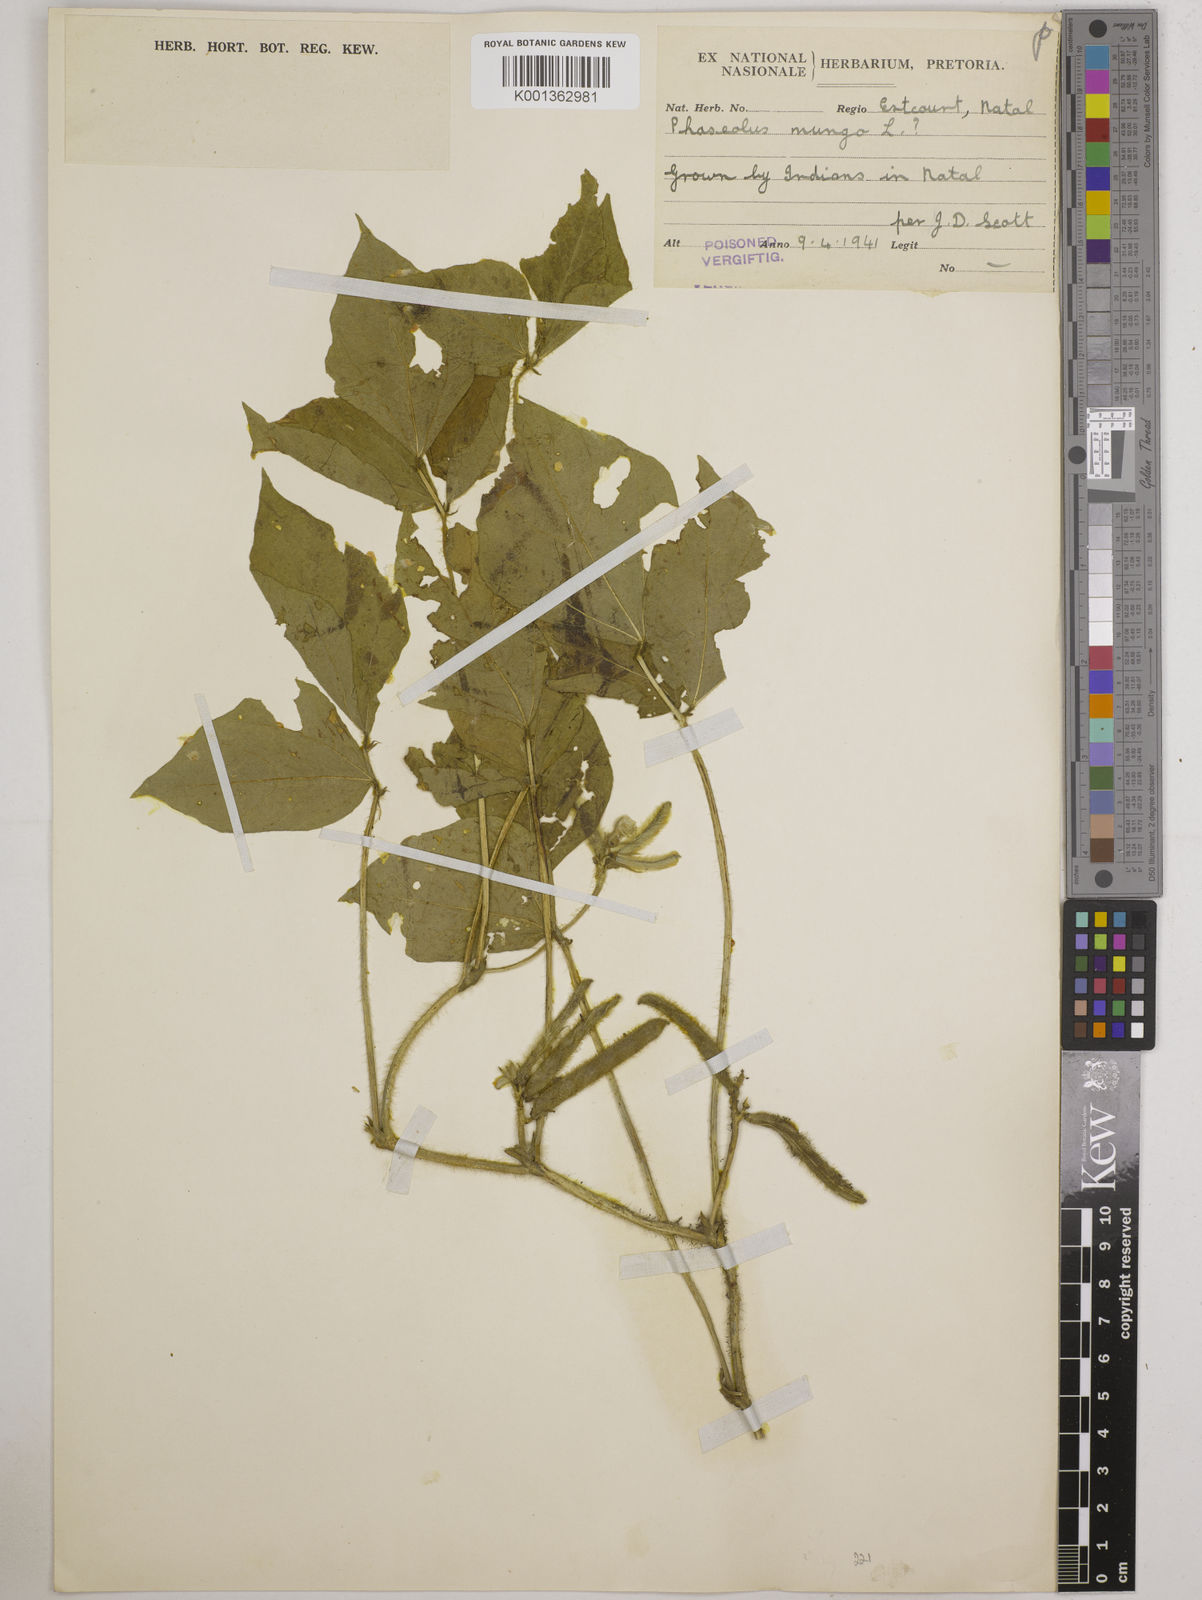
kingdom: Plantae
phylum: Tracheophyta
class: Magnoliopsida
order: Fabales
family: Fabaceae
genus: Vigna
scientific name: Vigna mungo
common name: Black gram
